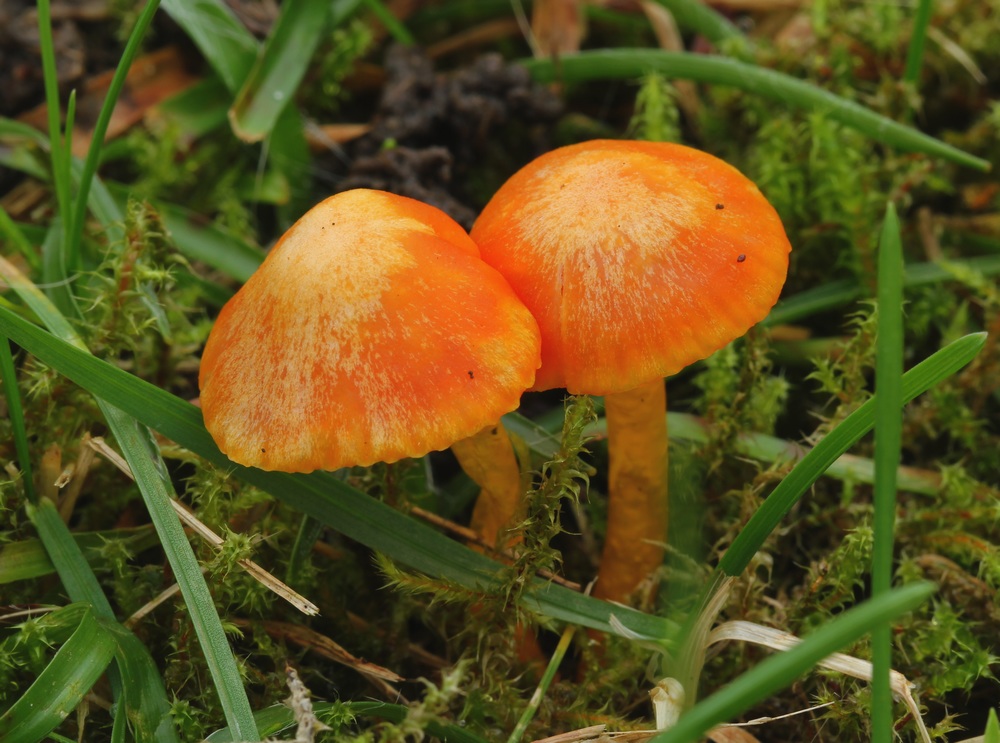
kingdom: Fungi
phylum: Basidiomycota
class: Agaricomycetes
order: Agaricales
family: Hygrophoraceae
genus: Hygrocybe
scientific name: Hygrocybe insipida
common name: liden vokshat
